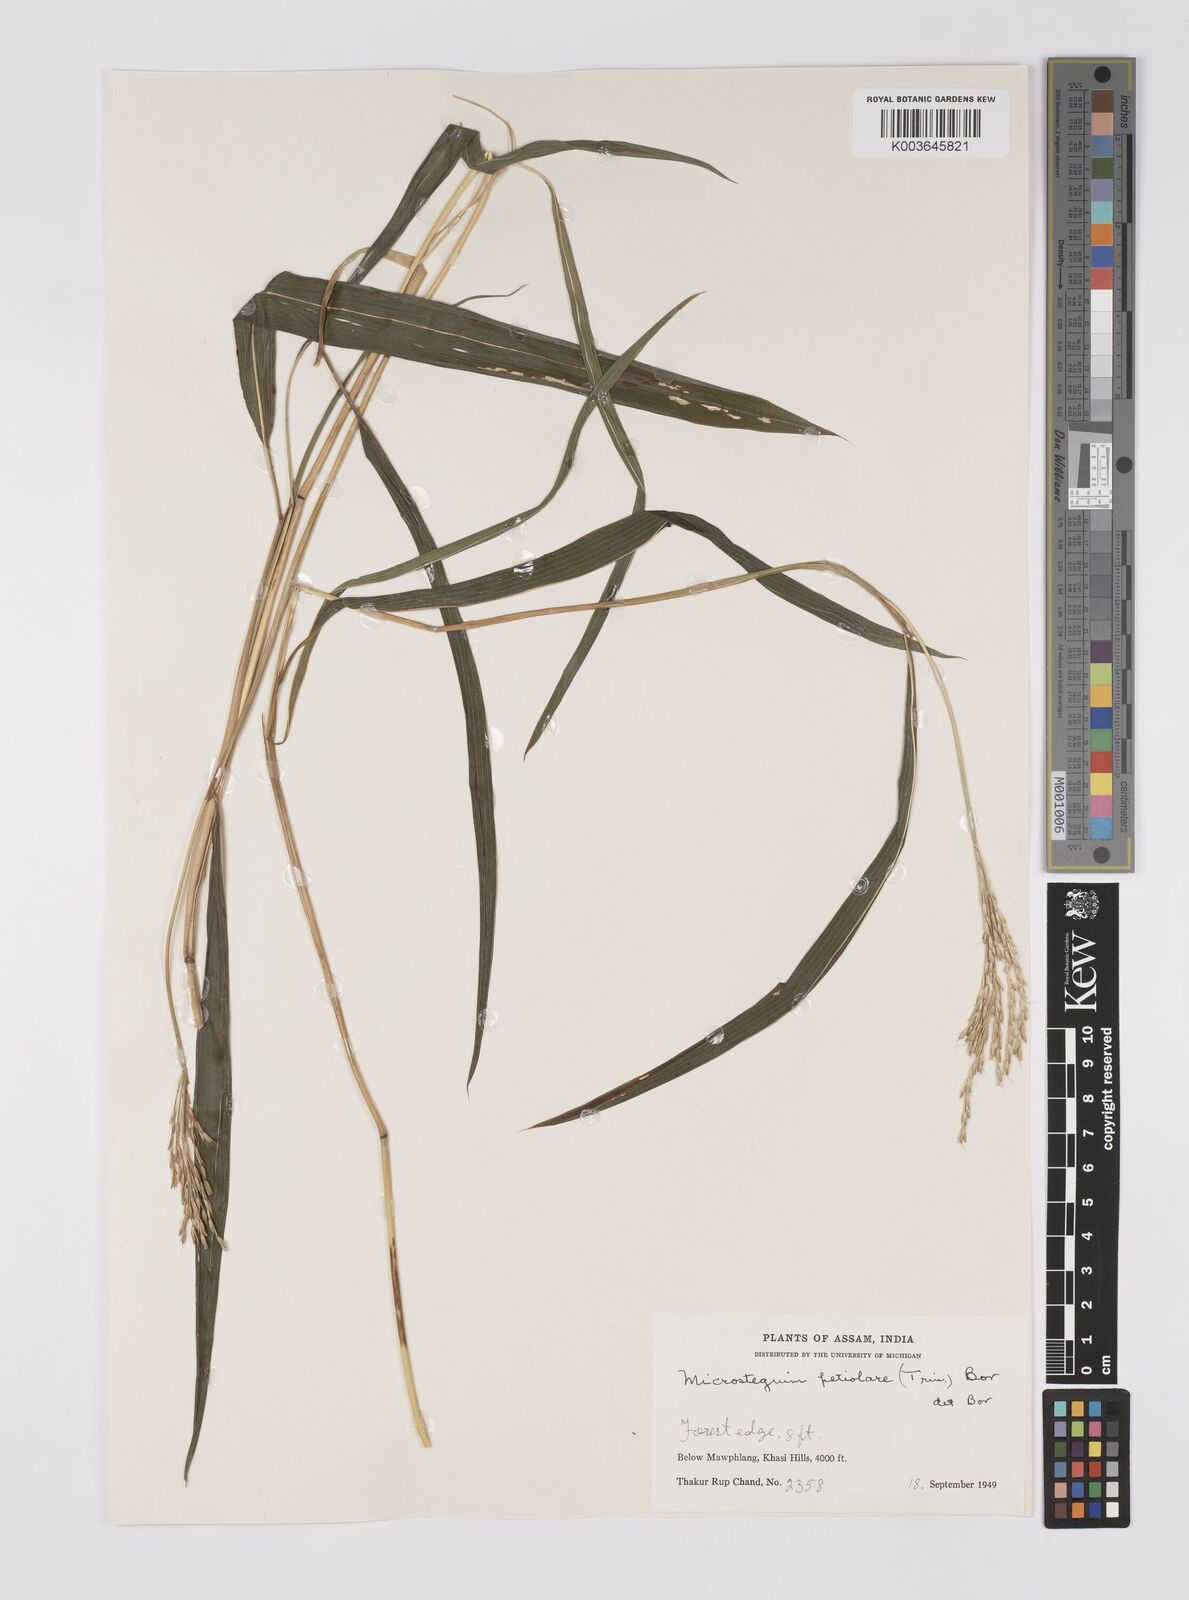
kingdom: Plantae
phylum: Tracheophyta
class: Liliopsida
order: Poales
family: Poaceae
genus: Microstegium
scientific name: Microstegium petiolare
